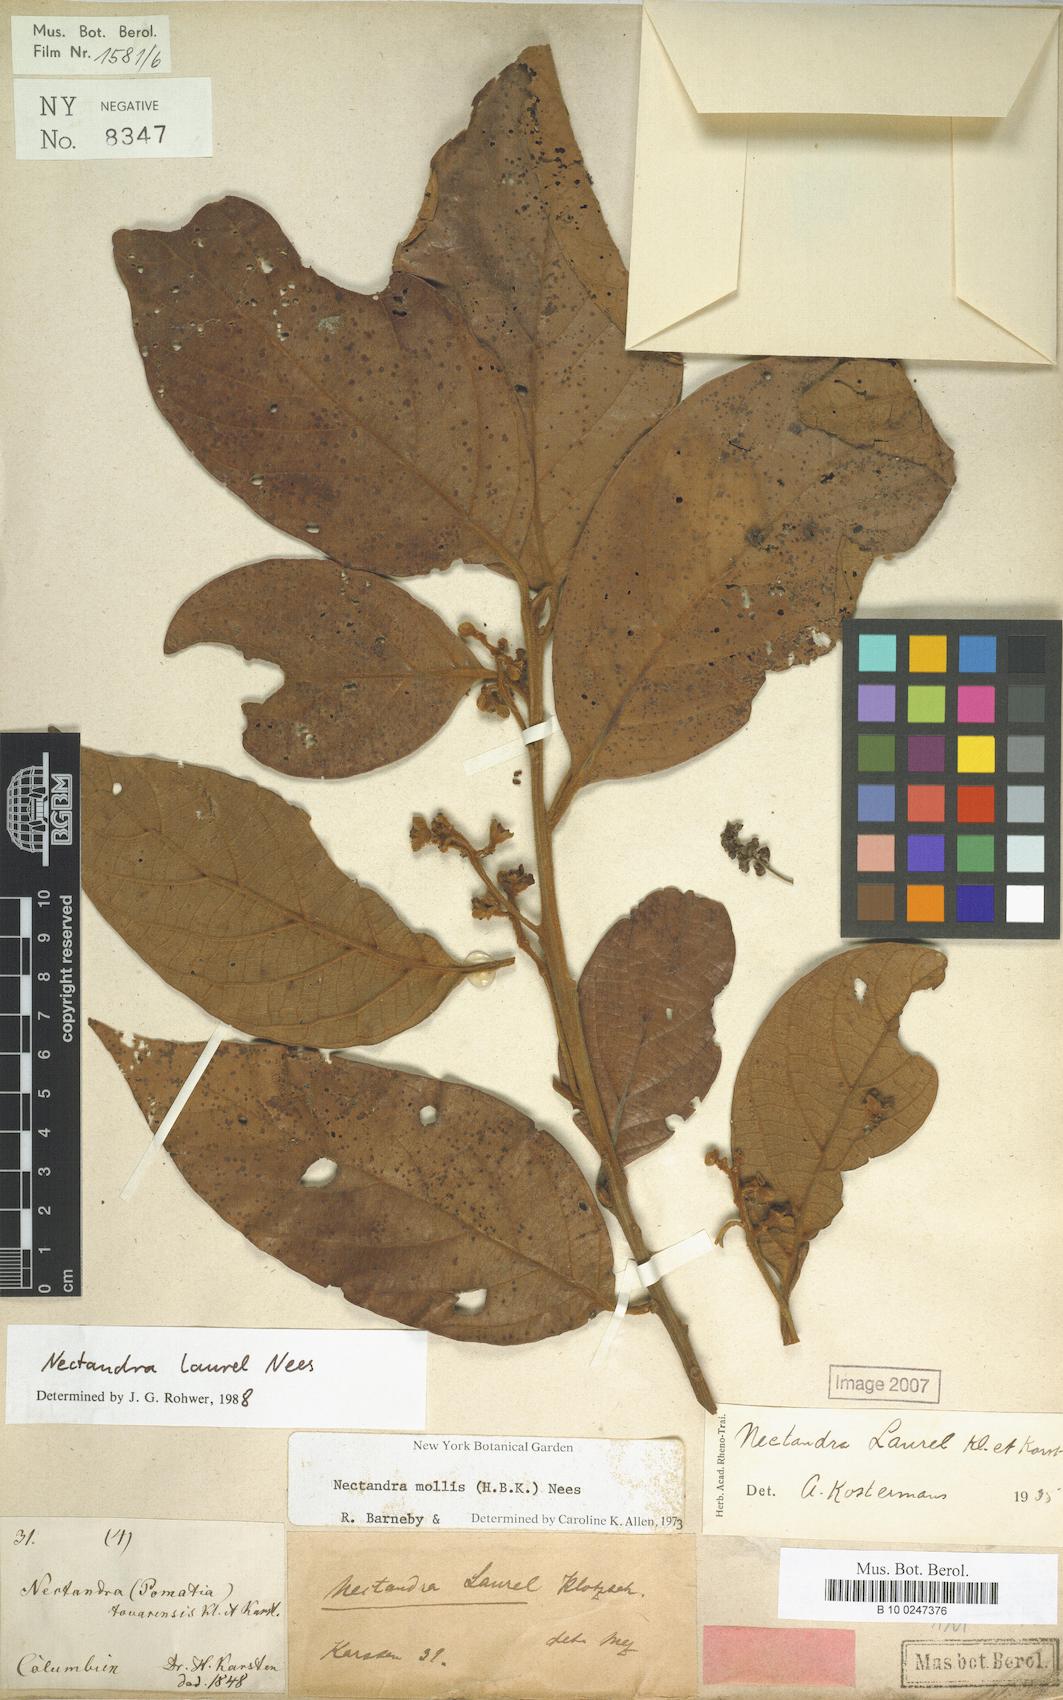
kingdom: Plantae
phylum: Tracheophyta
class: Magnoliopsida
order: Laurales
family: Lauraceae
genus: Nectandra
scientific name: Nectandra laurel
